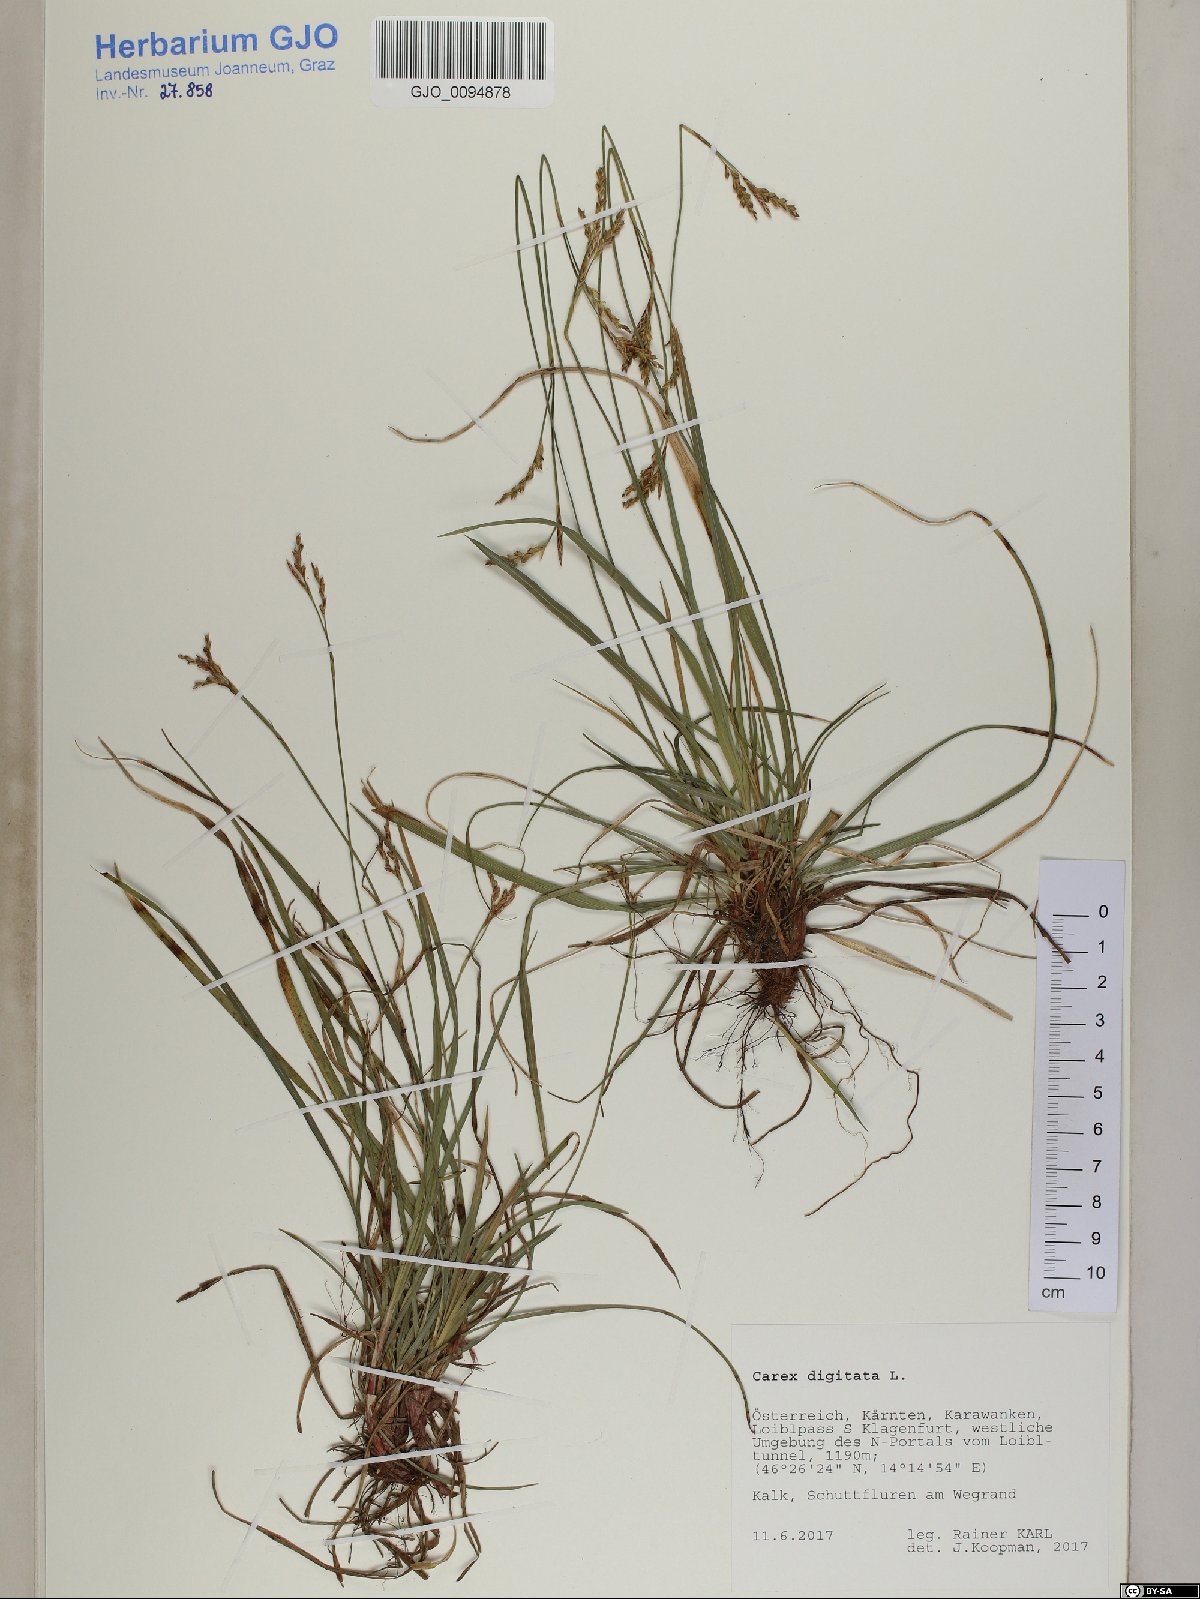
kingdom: Plantae
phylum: Tracheophyta
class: Liliopsida
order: Poales
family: Cyperaceae
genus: Carex
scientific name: Carex digitata
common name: Fingered sedge
